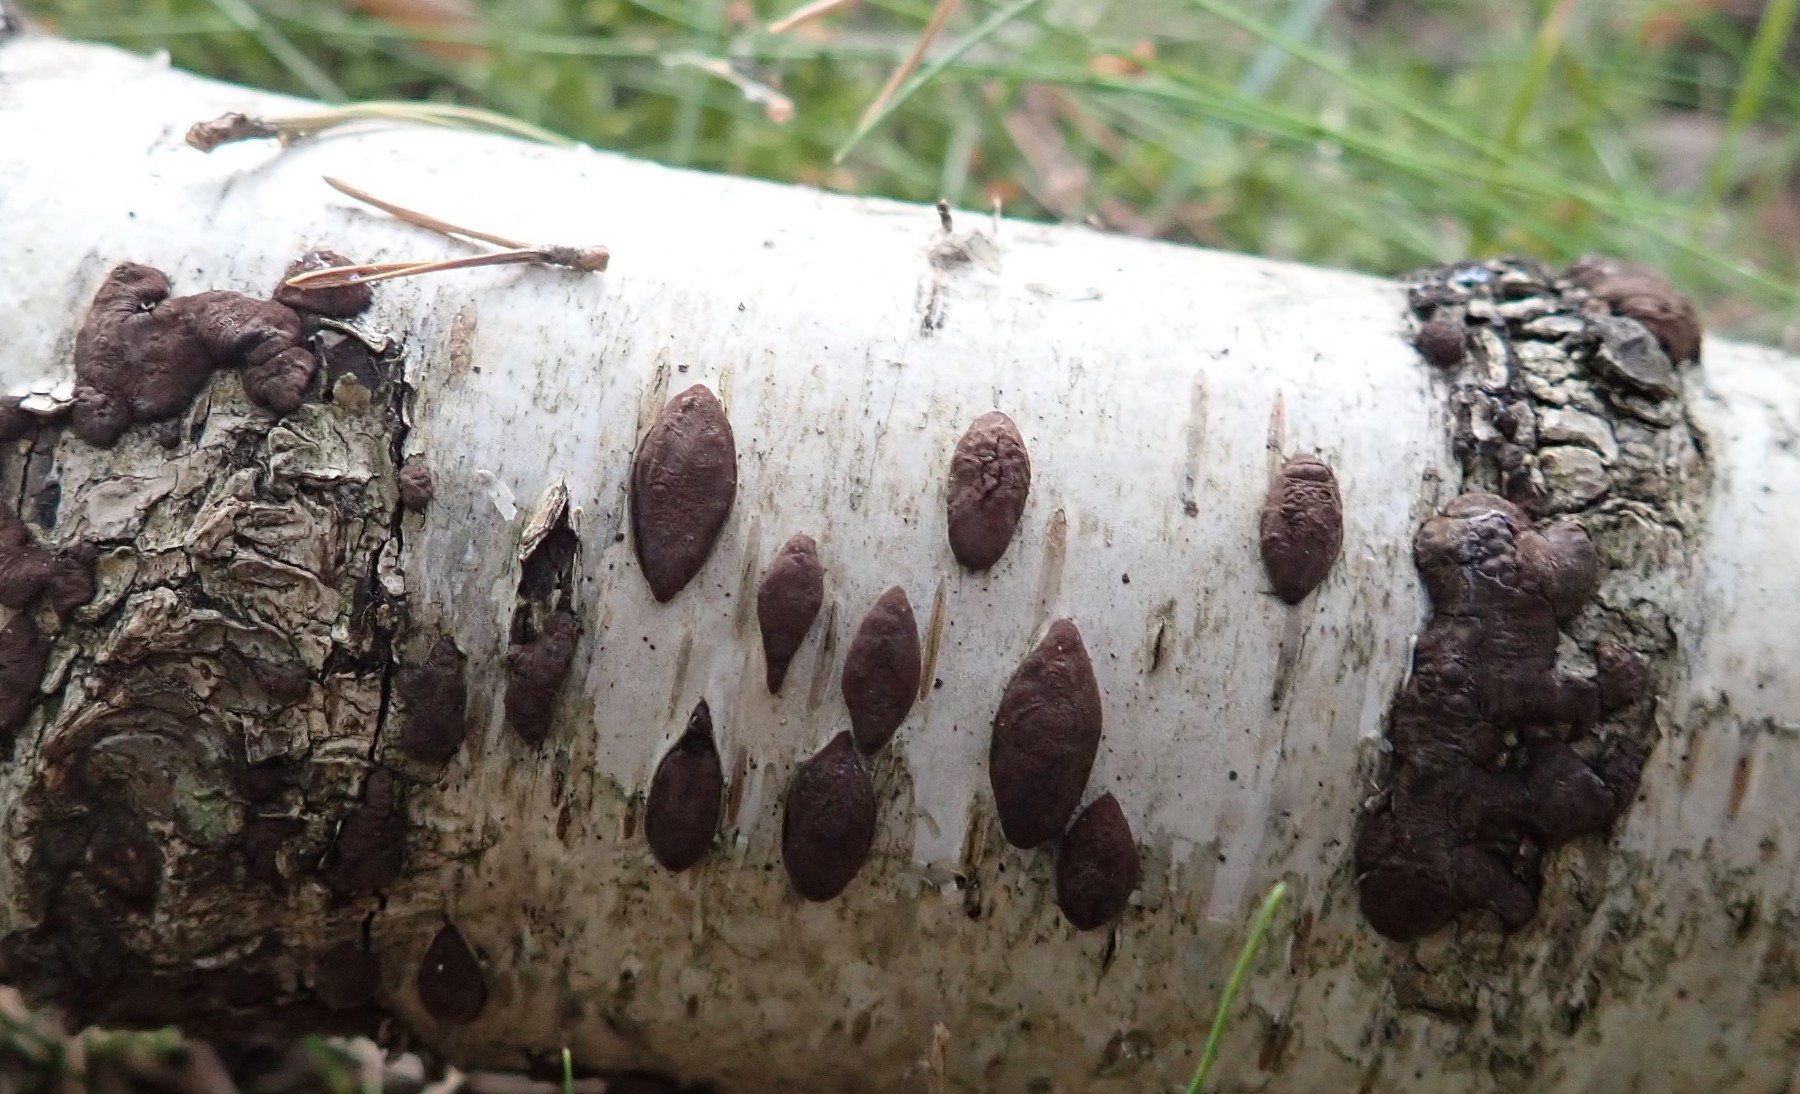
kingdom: Fungi
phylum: Ascomycota
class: Sordariomycetes
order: Xylariales
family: Hypoxylaceae
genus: Jackrogersella
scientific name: Jackrogersella multiformis
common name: foranderlig kulbær
